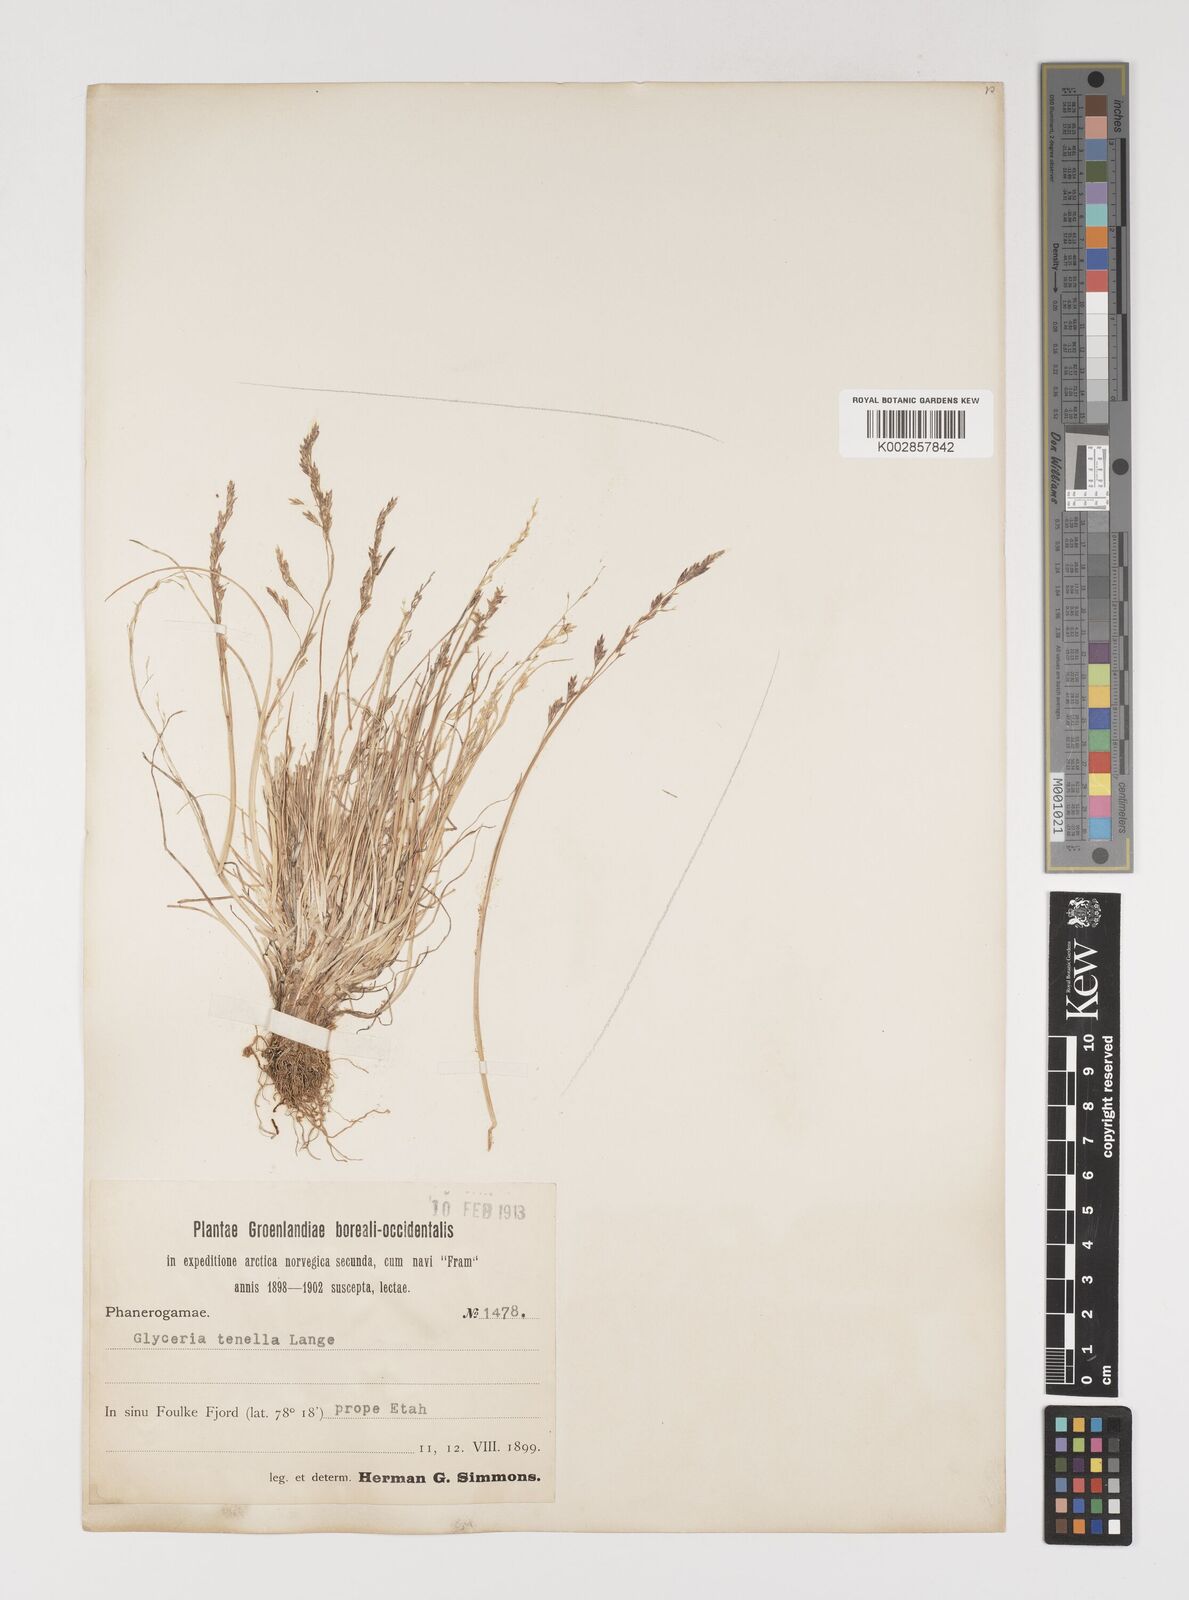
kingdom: Plantae
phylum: Tracheophyta
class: Liliopsida
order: Poales
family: Poaceae
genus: Puccinellia
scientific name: Puccinellia tenella
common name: Tundra alkaligrass
